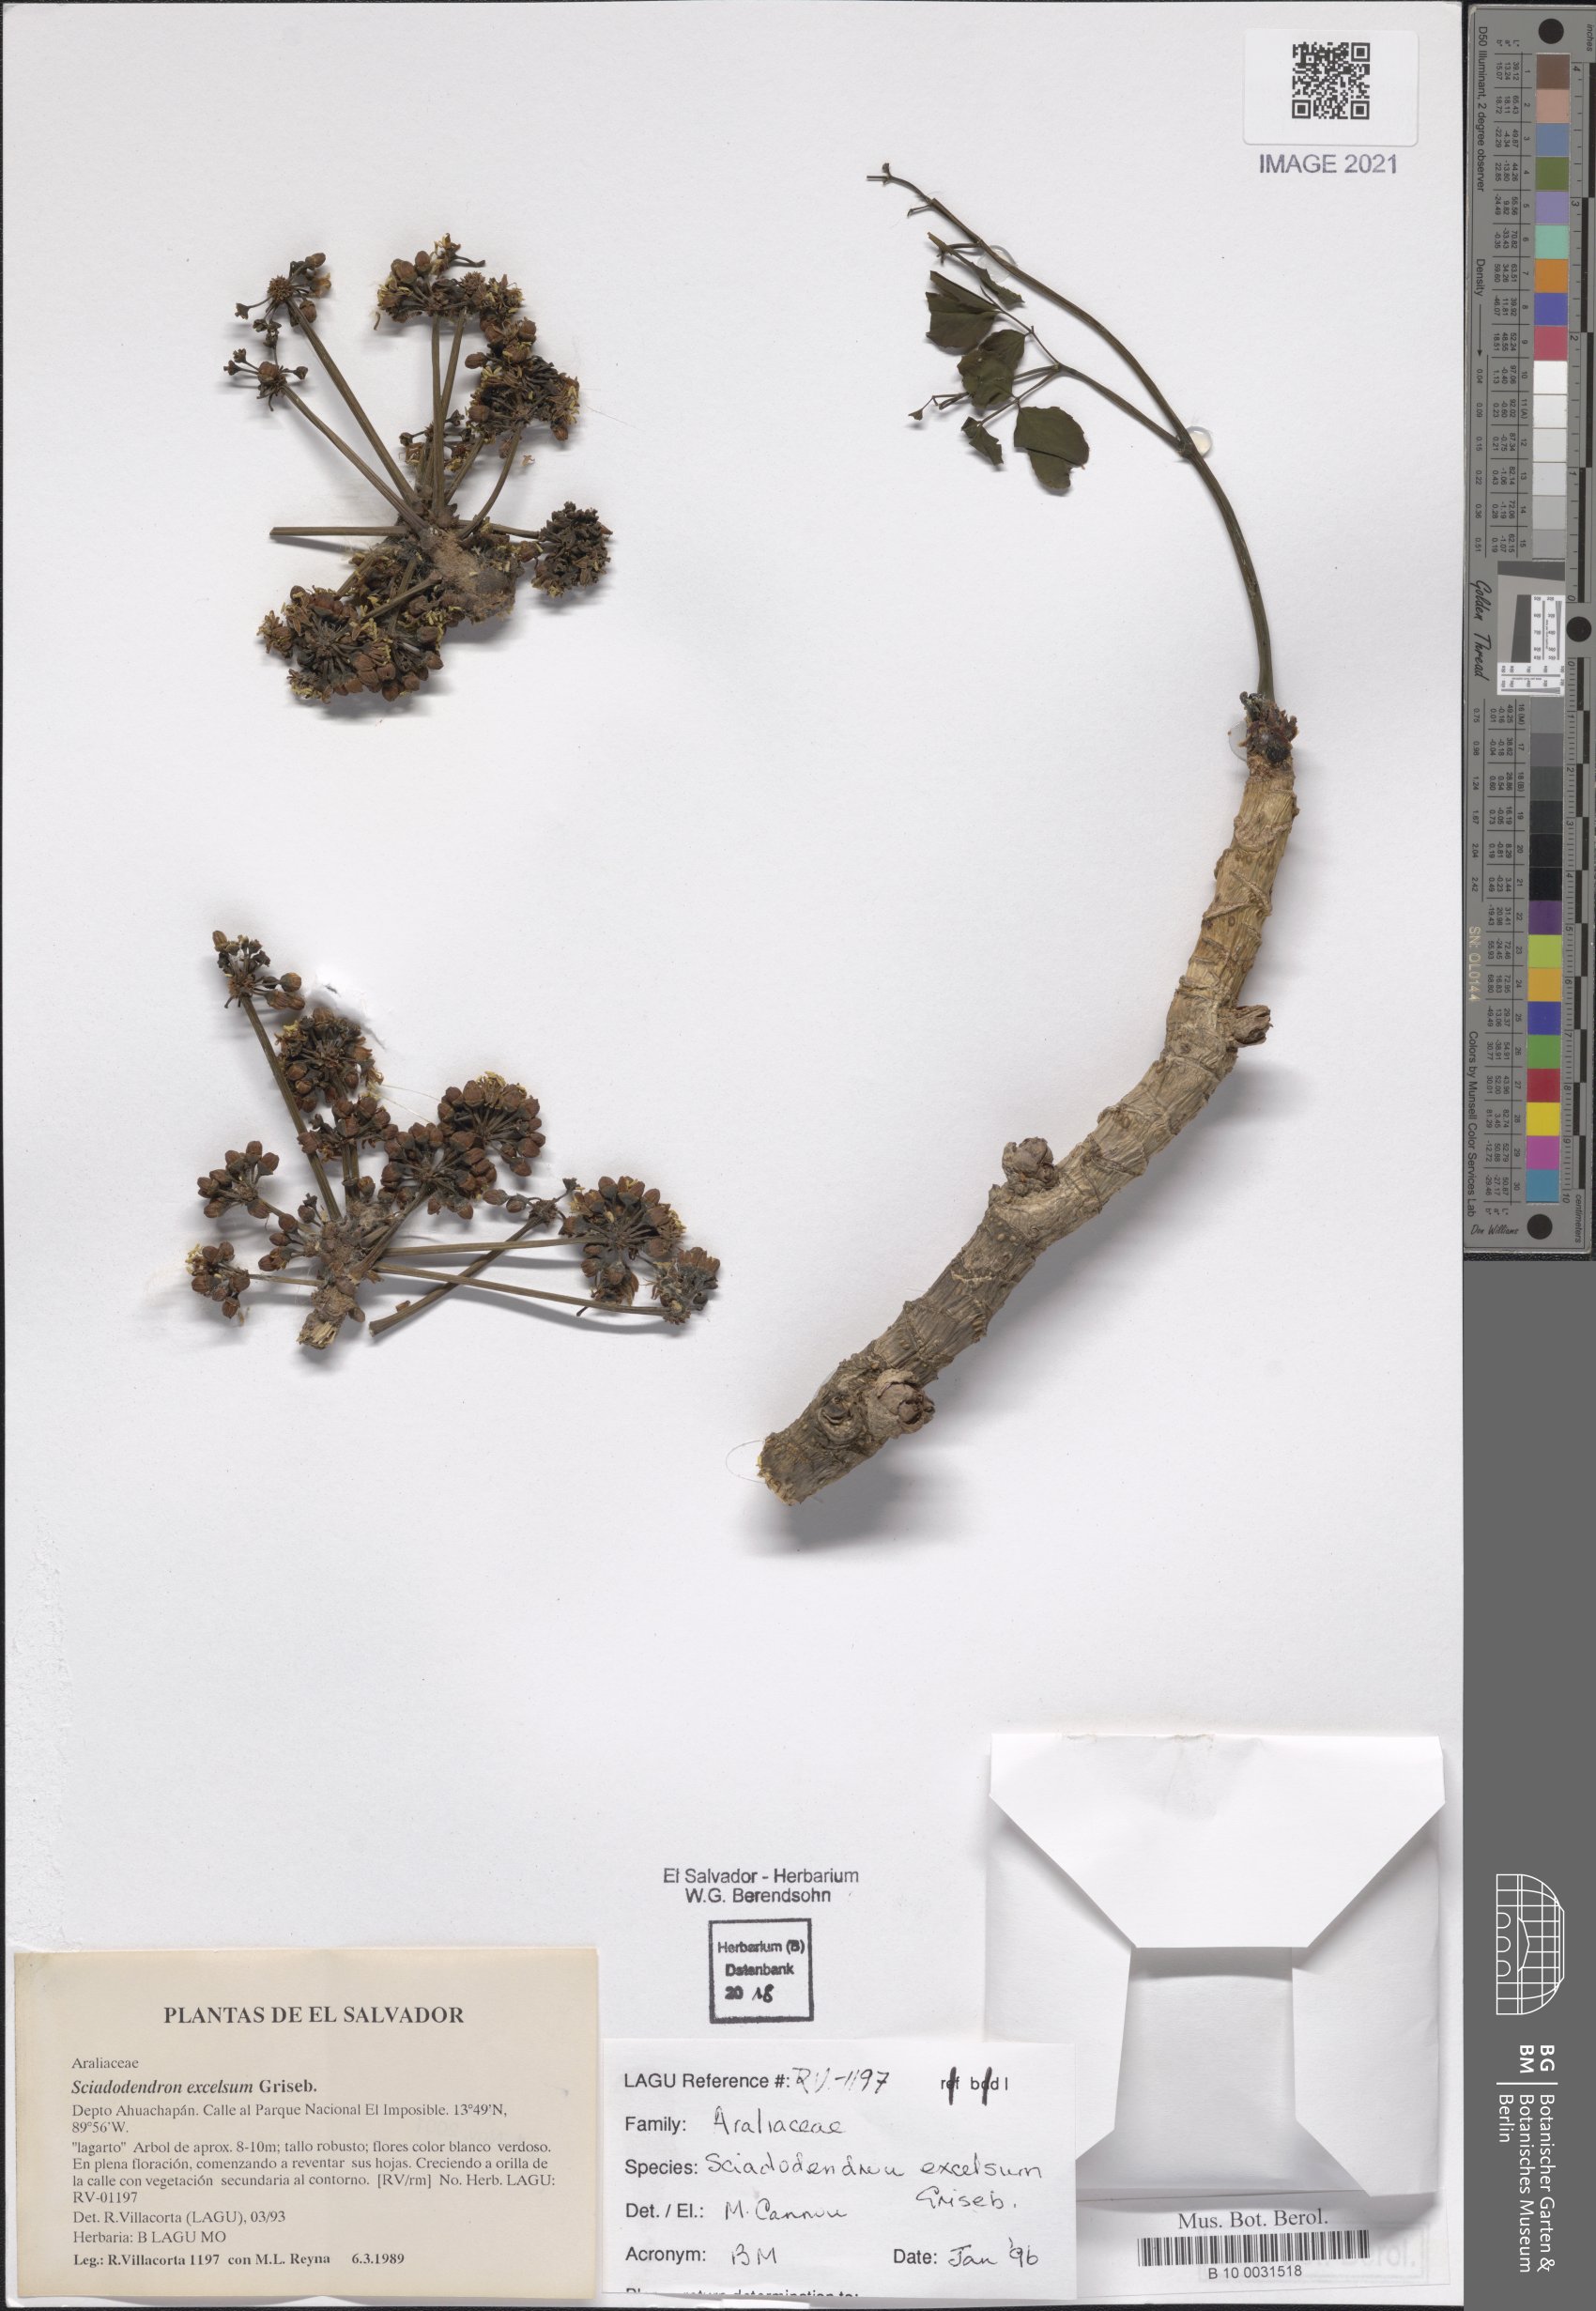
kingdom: Plantae
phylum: Tracheophyta
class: Magnoliopsida
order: Apiales
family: Araliaceae
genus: Aralia
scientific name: Aralia excelsa
